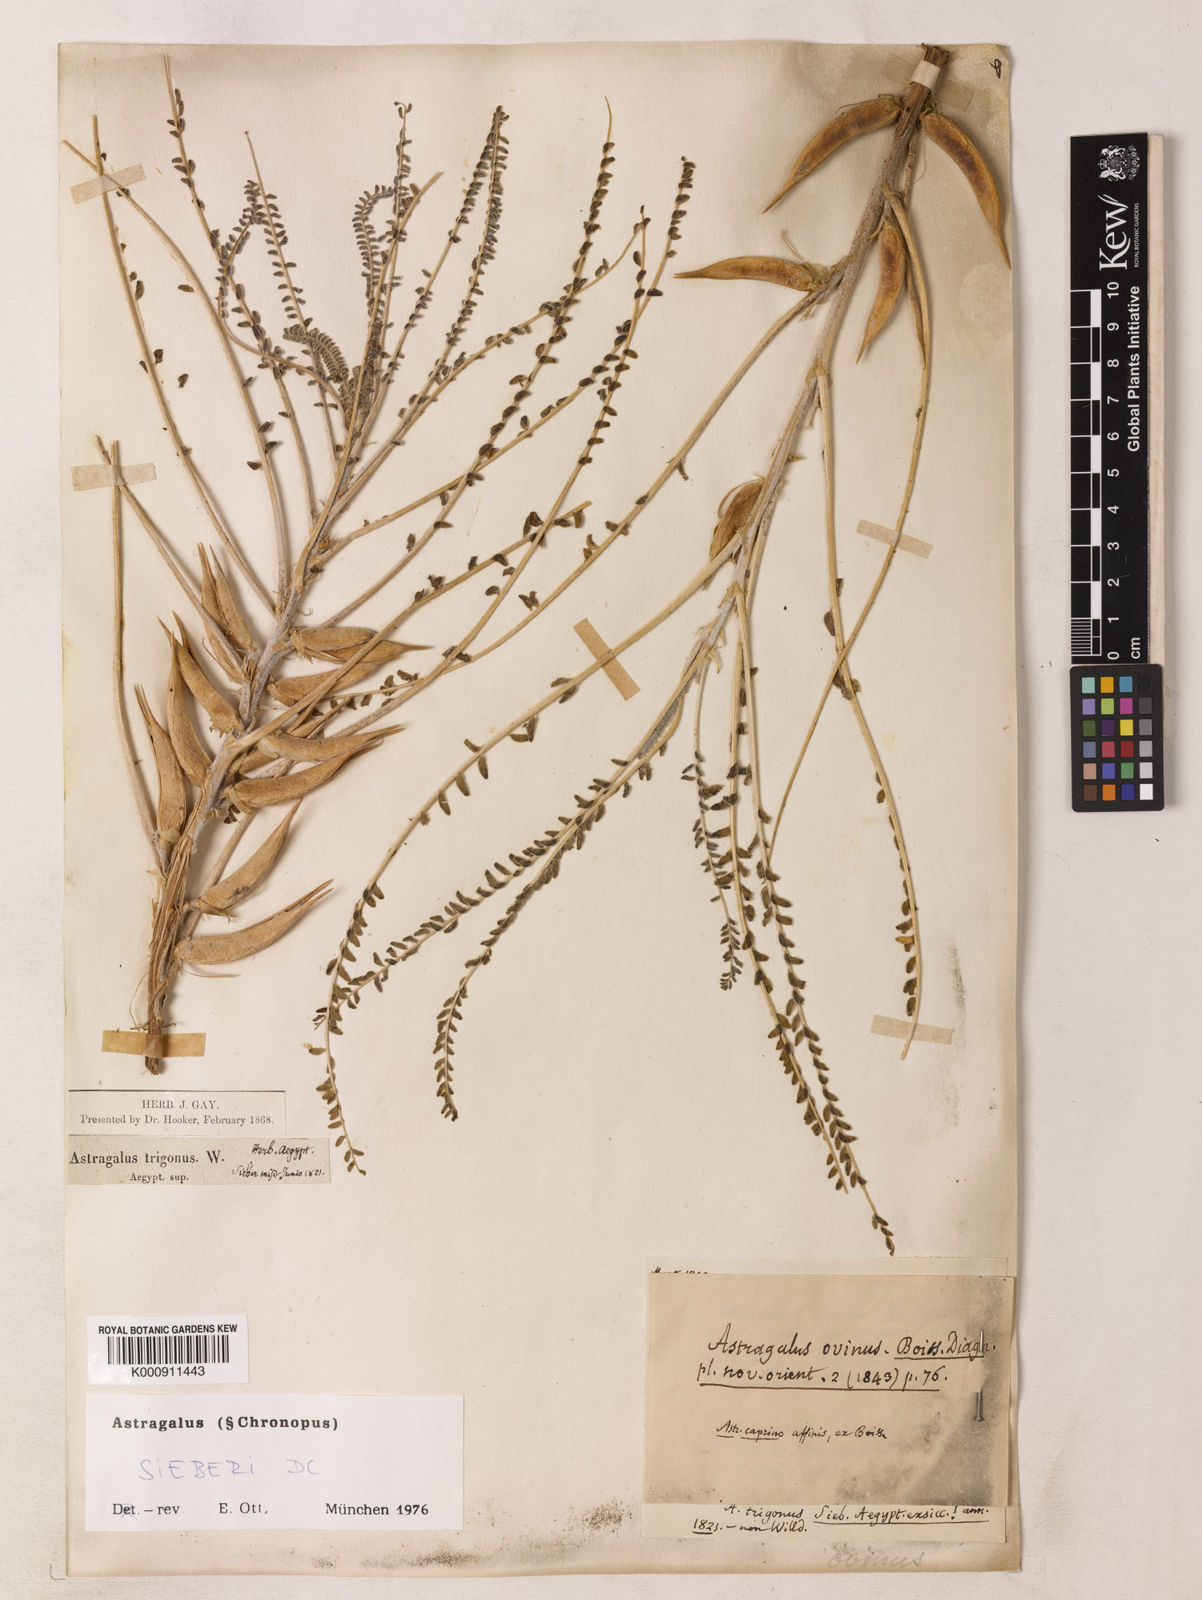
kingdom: Plantae
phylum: Tracheophyta
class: Magnoliopsida
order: Fabales
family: Fabaceae
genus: Astragalus
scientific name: Astragalus sieberi
